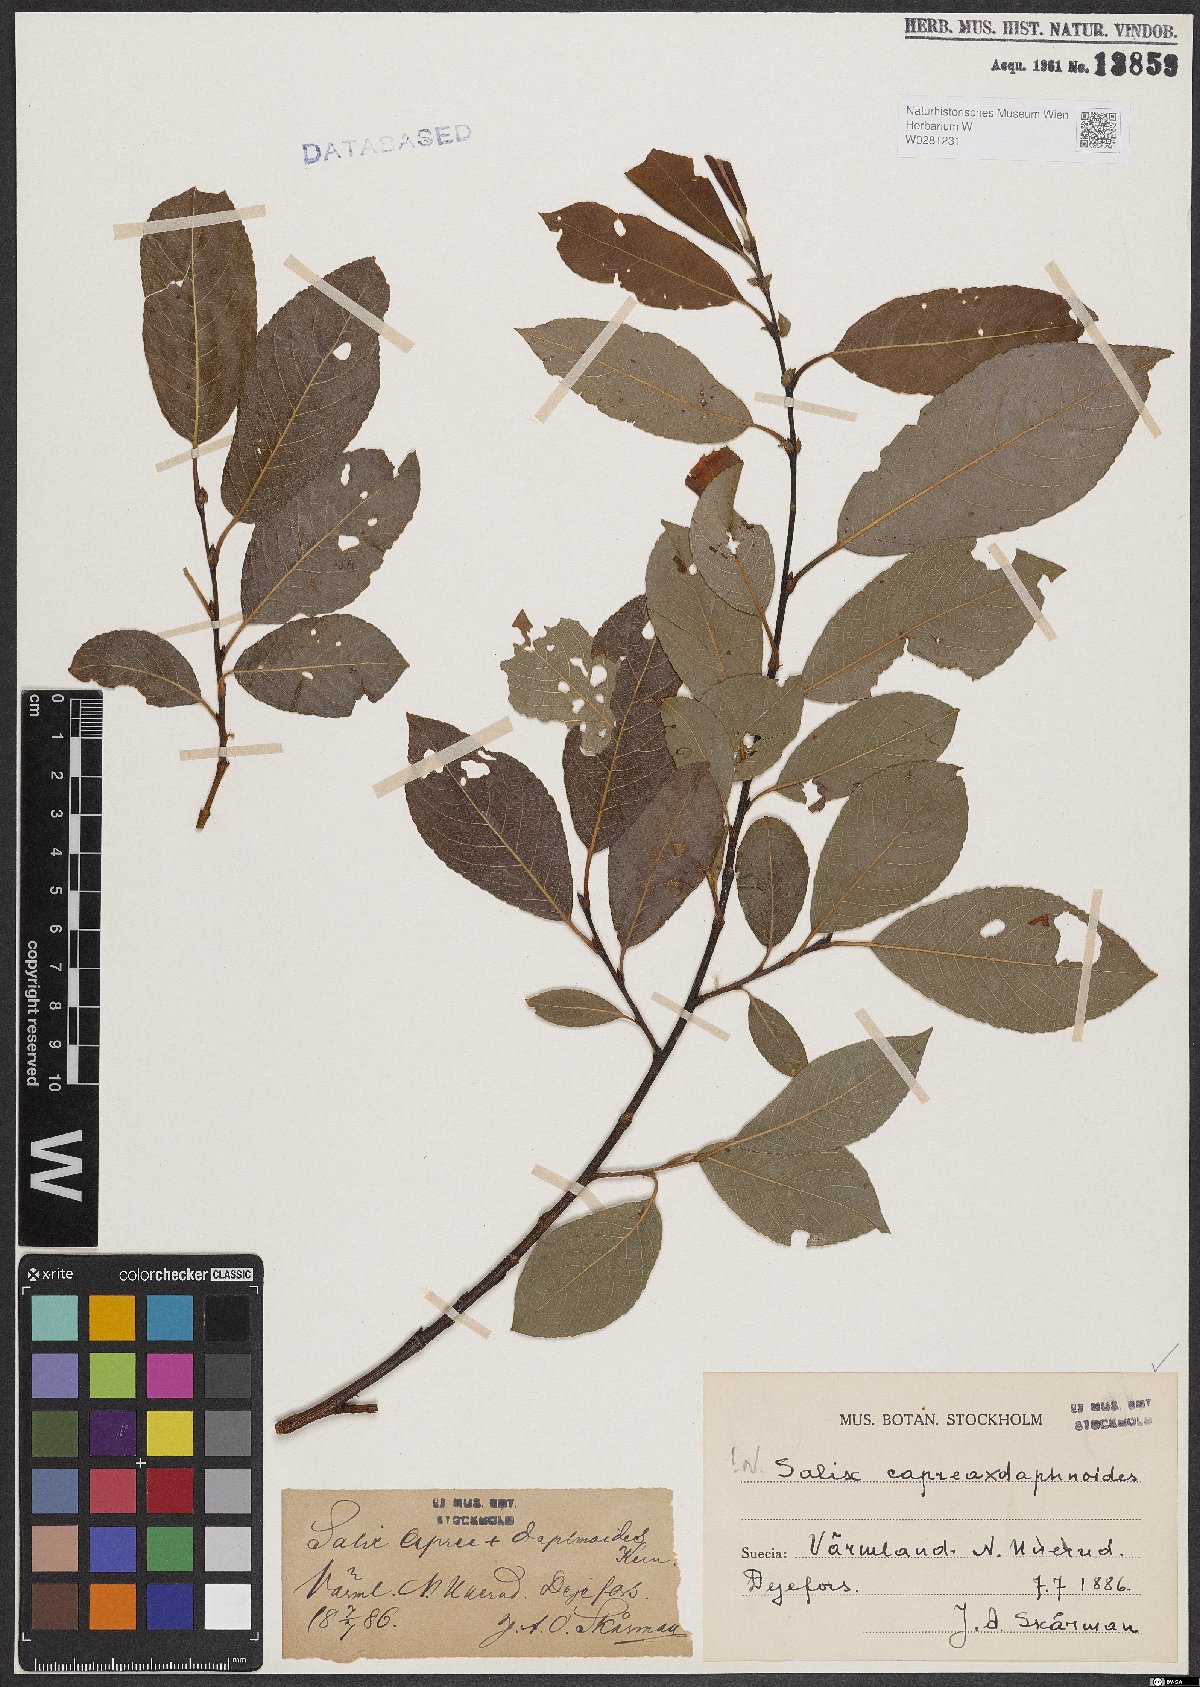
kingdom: Plantae
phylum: Tracheophyta
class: Magnoliopsida
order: Malpighiales
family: Salicaceae
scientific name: Salicaceae
